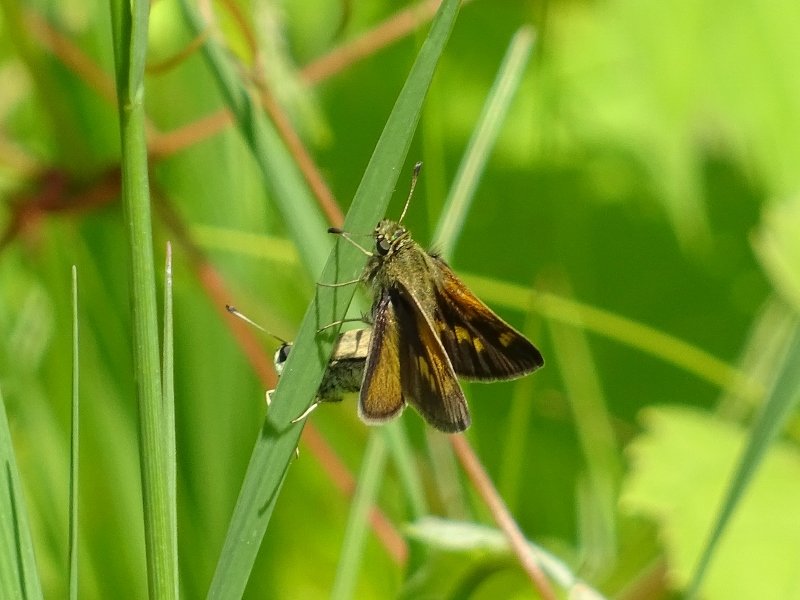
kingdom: Animalia
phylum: Arthropoda
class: Insecta
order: Lepidoptera
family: Hesperiidae
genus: Polites
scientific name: Polites themistocles
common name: Tawny-edged Skipper
